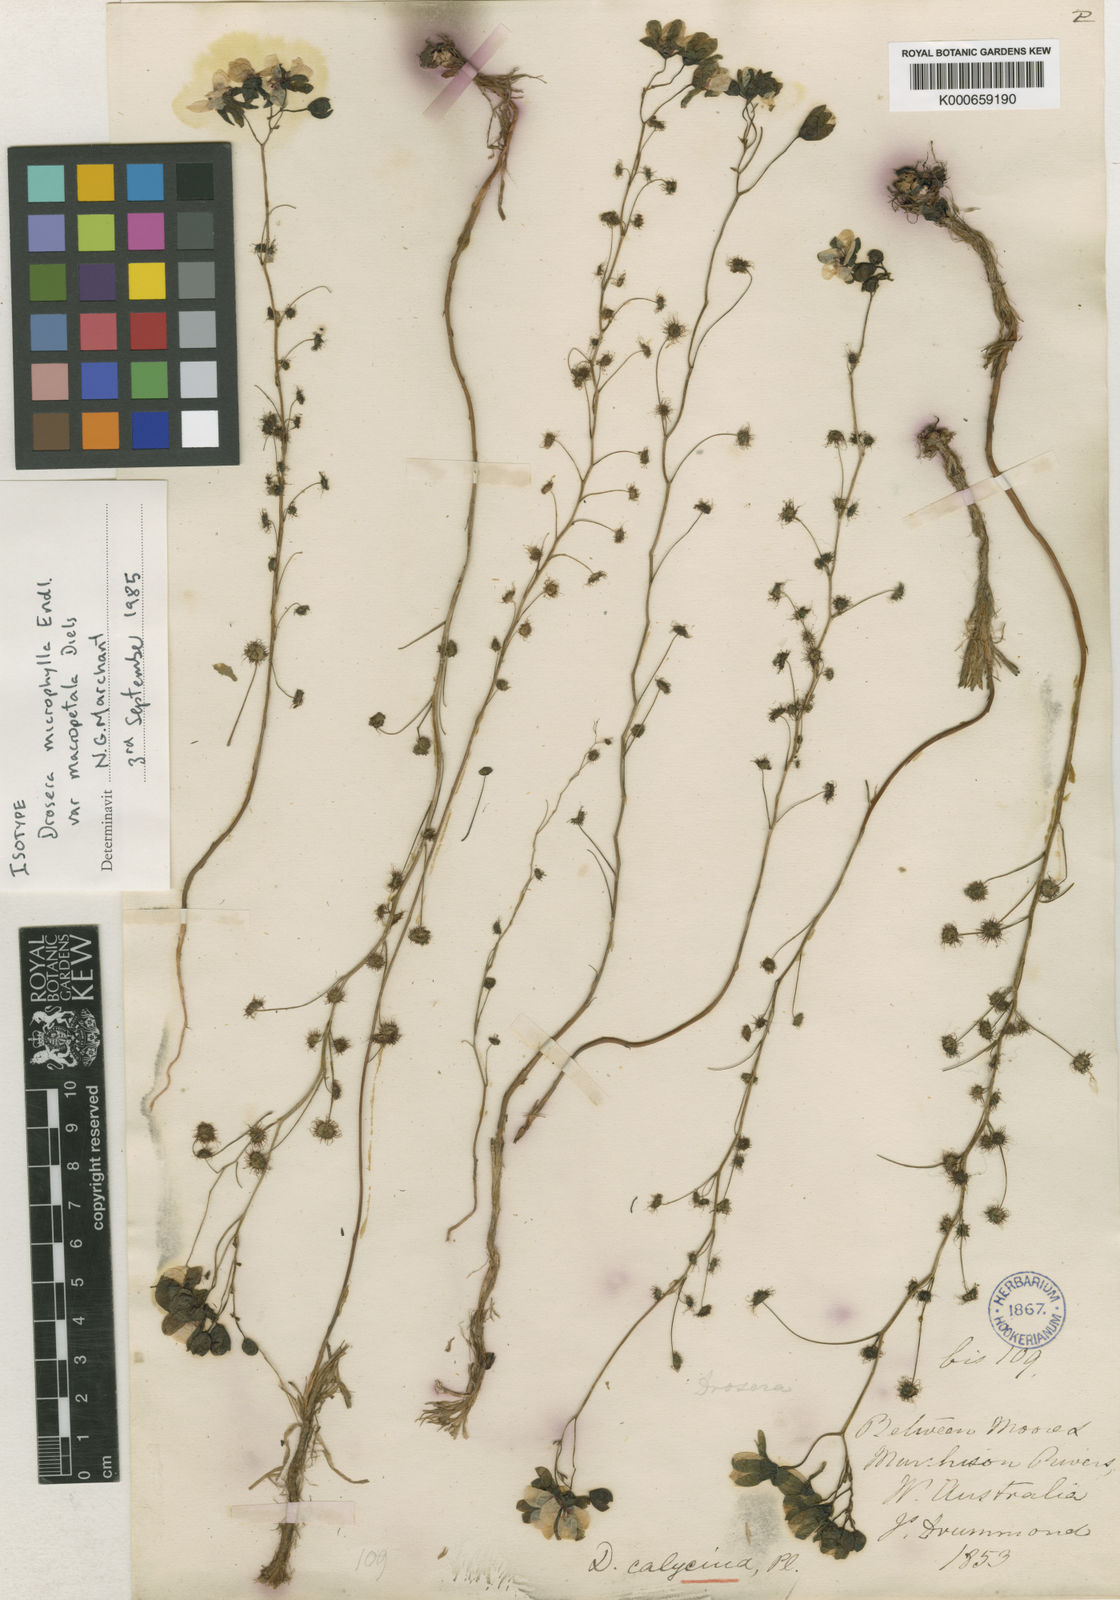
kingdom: Plantae
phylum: Tracheophyta
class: Magnoliopsida
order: Caryophyllales
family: Droseraceae
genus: Drosera
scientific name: Drosera microphylla
